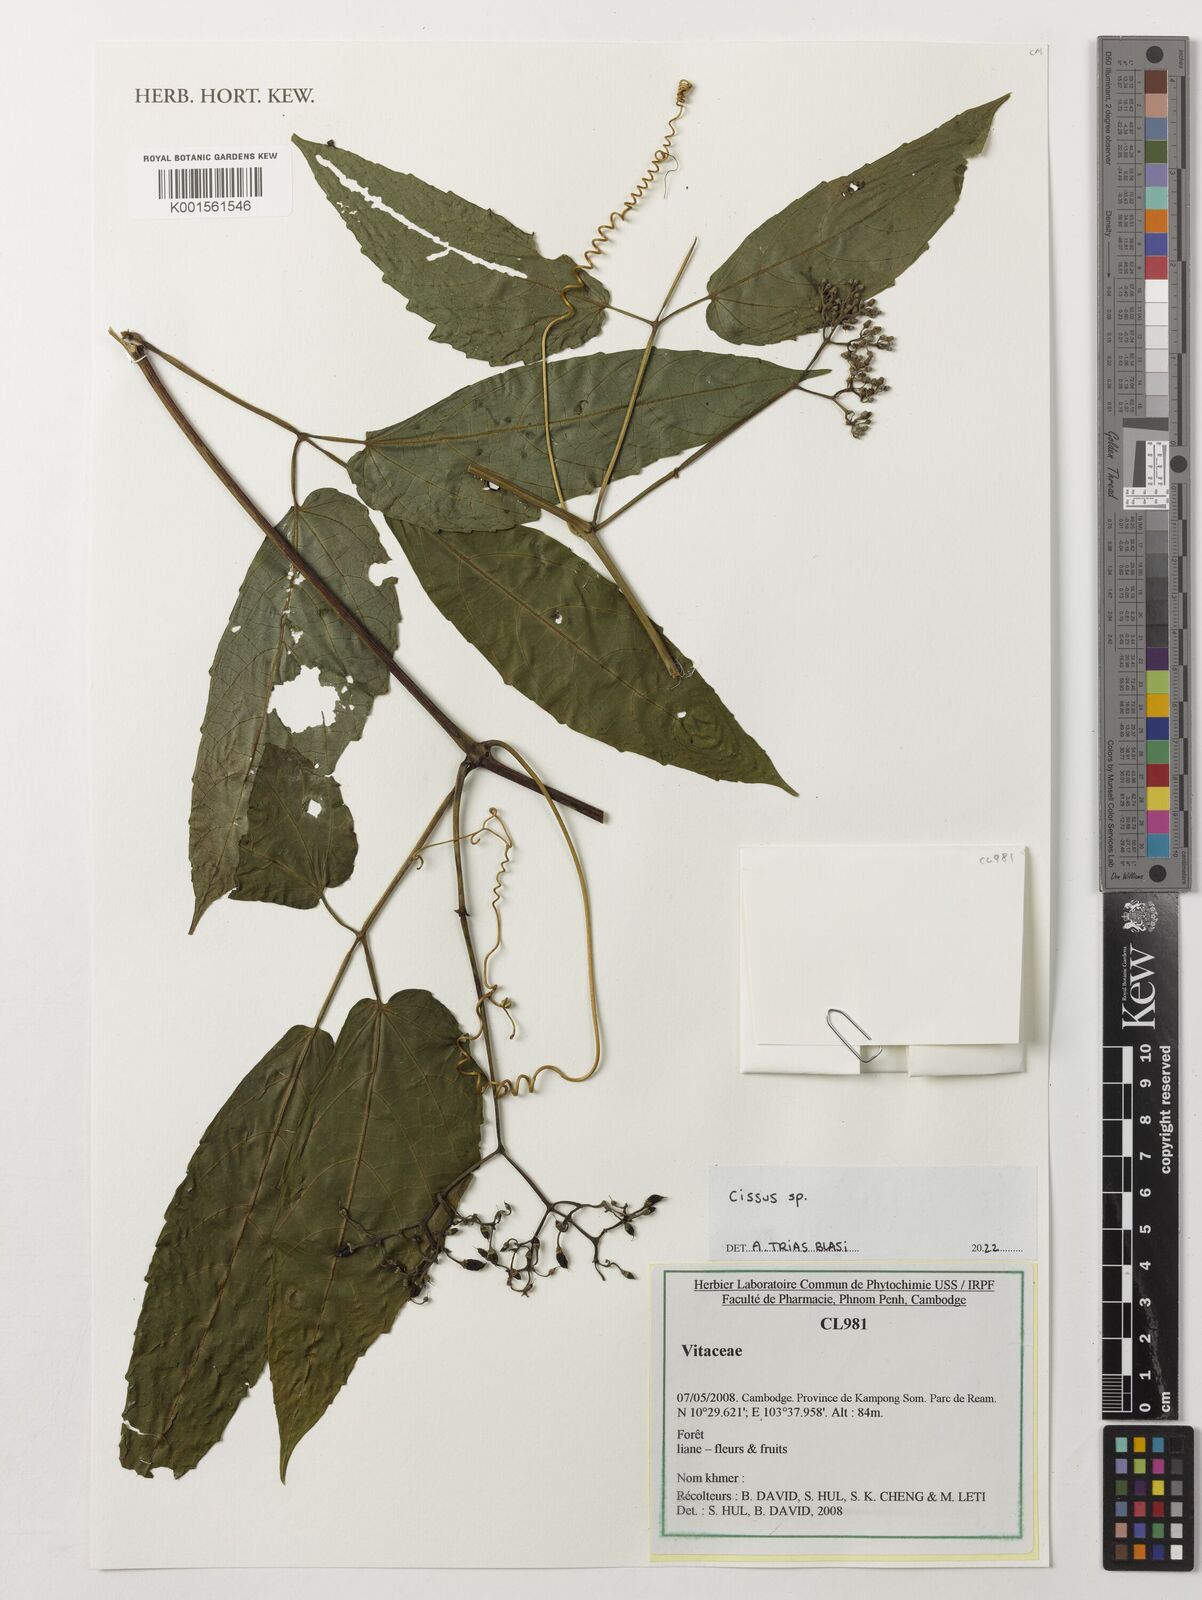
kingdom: Plantae
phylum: Tracheophyta
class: Magnoliopsida
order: Vitales
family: Vitaceae
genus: Cissus
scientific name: Cissus
